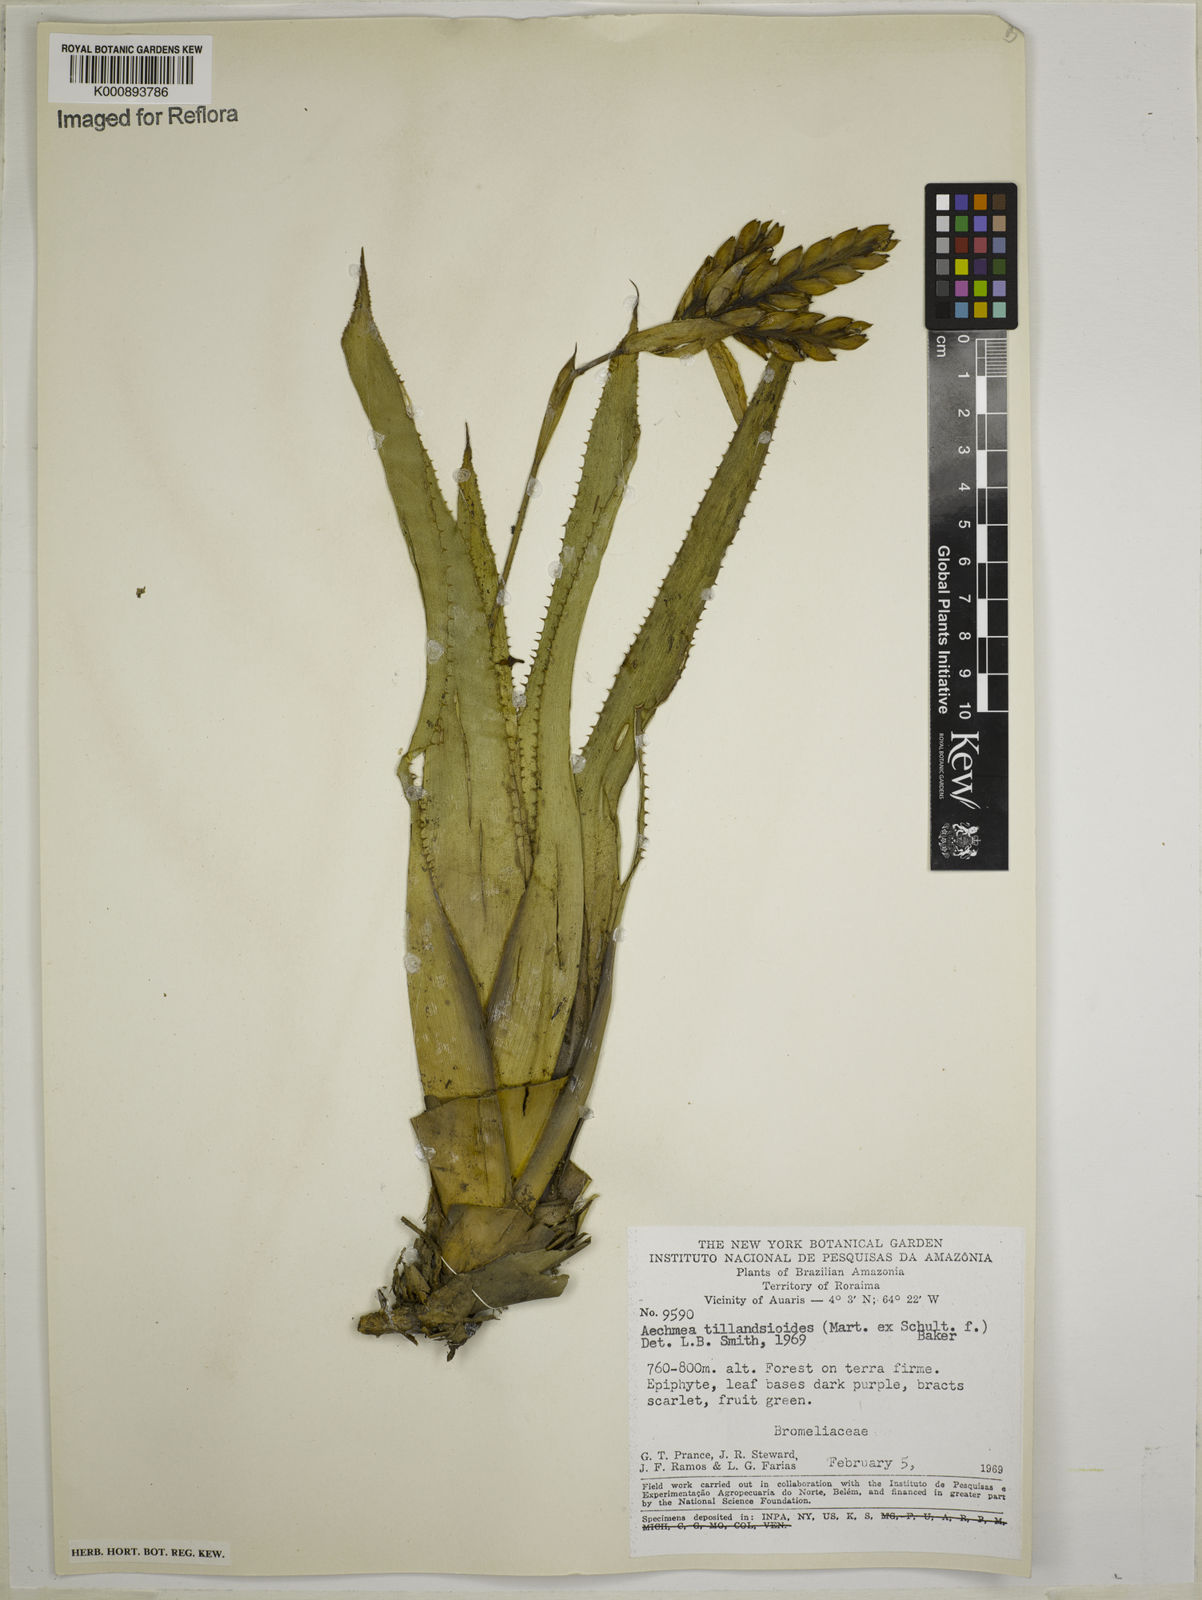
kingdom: Plantae
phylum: Tracheophyta
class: Liliopsida
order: Poales
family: Bromeliaceae
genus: Aechmea
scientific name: Aechmea tillandsioides
